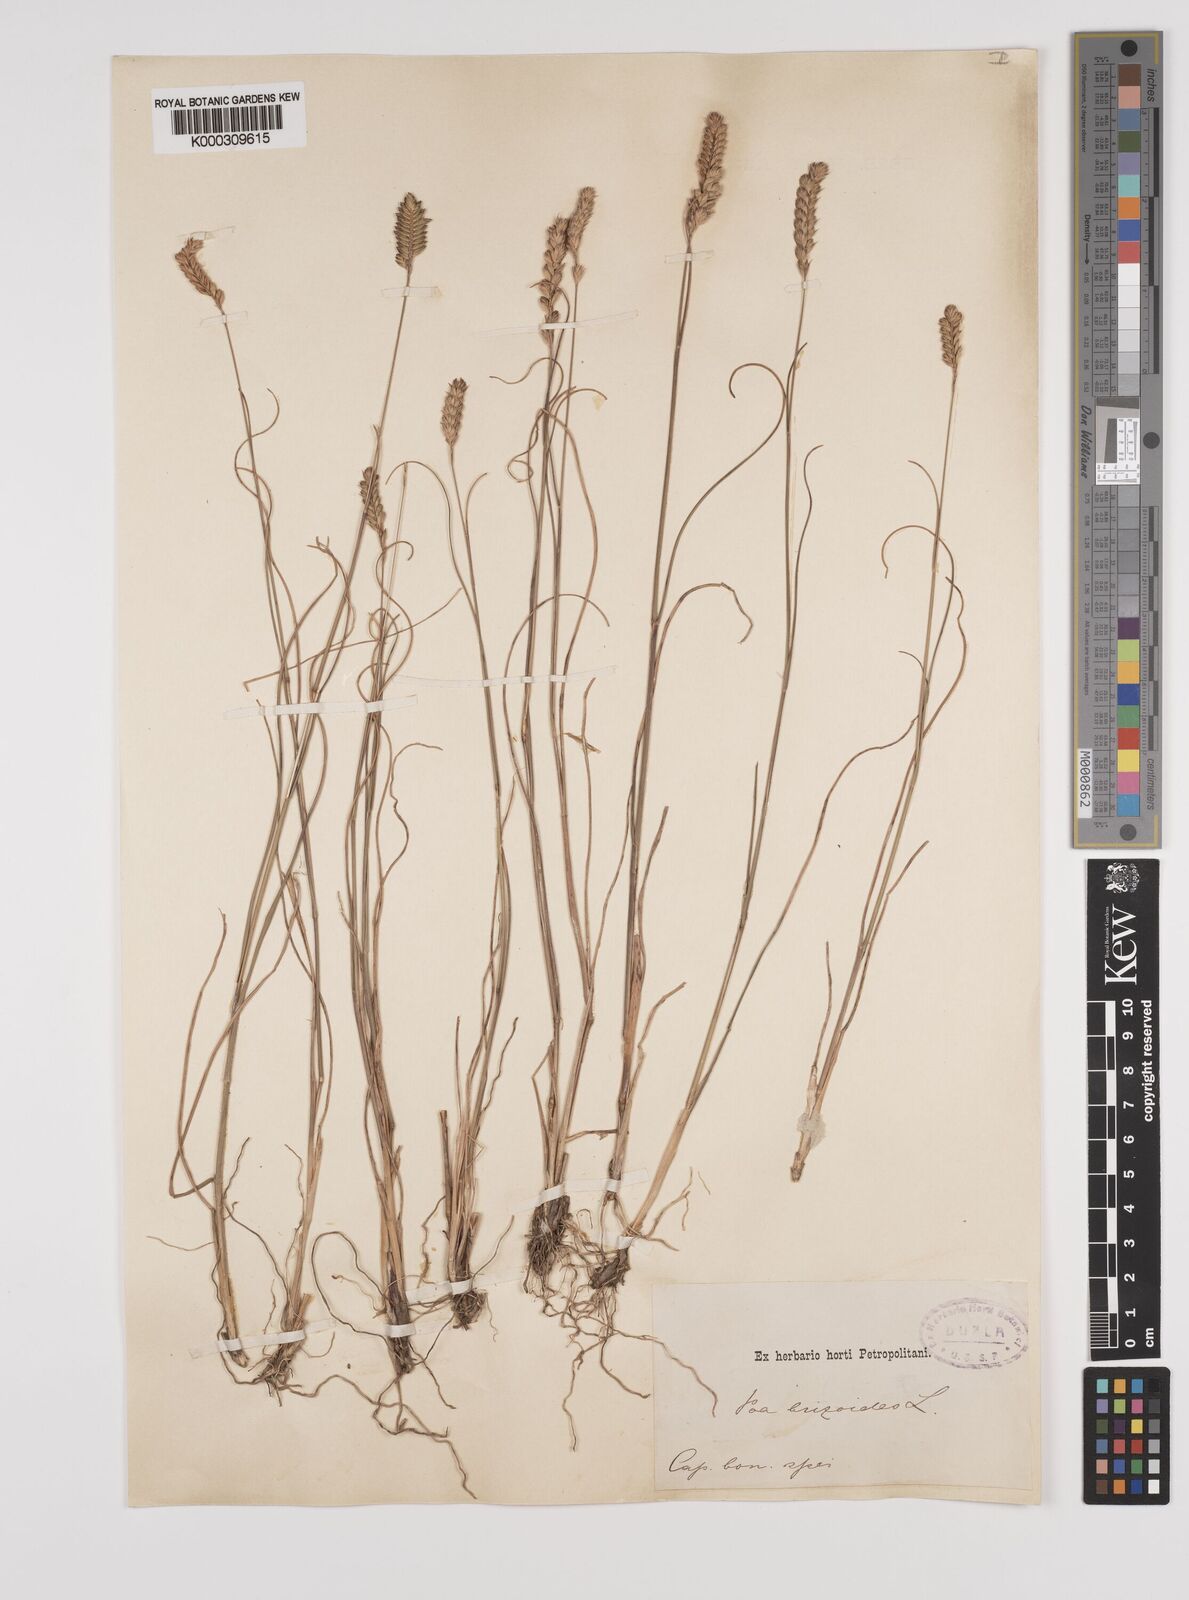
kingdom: Plantae
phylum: Tracheophyta
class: Liliopsida
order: Poales
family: Poaceae
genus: Tribolium
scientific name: Tribolium uniolae
